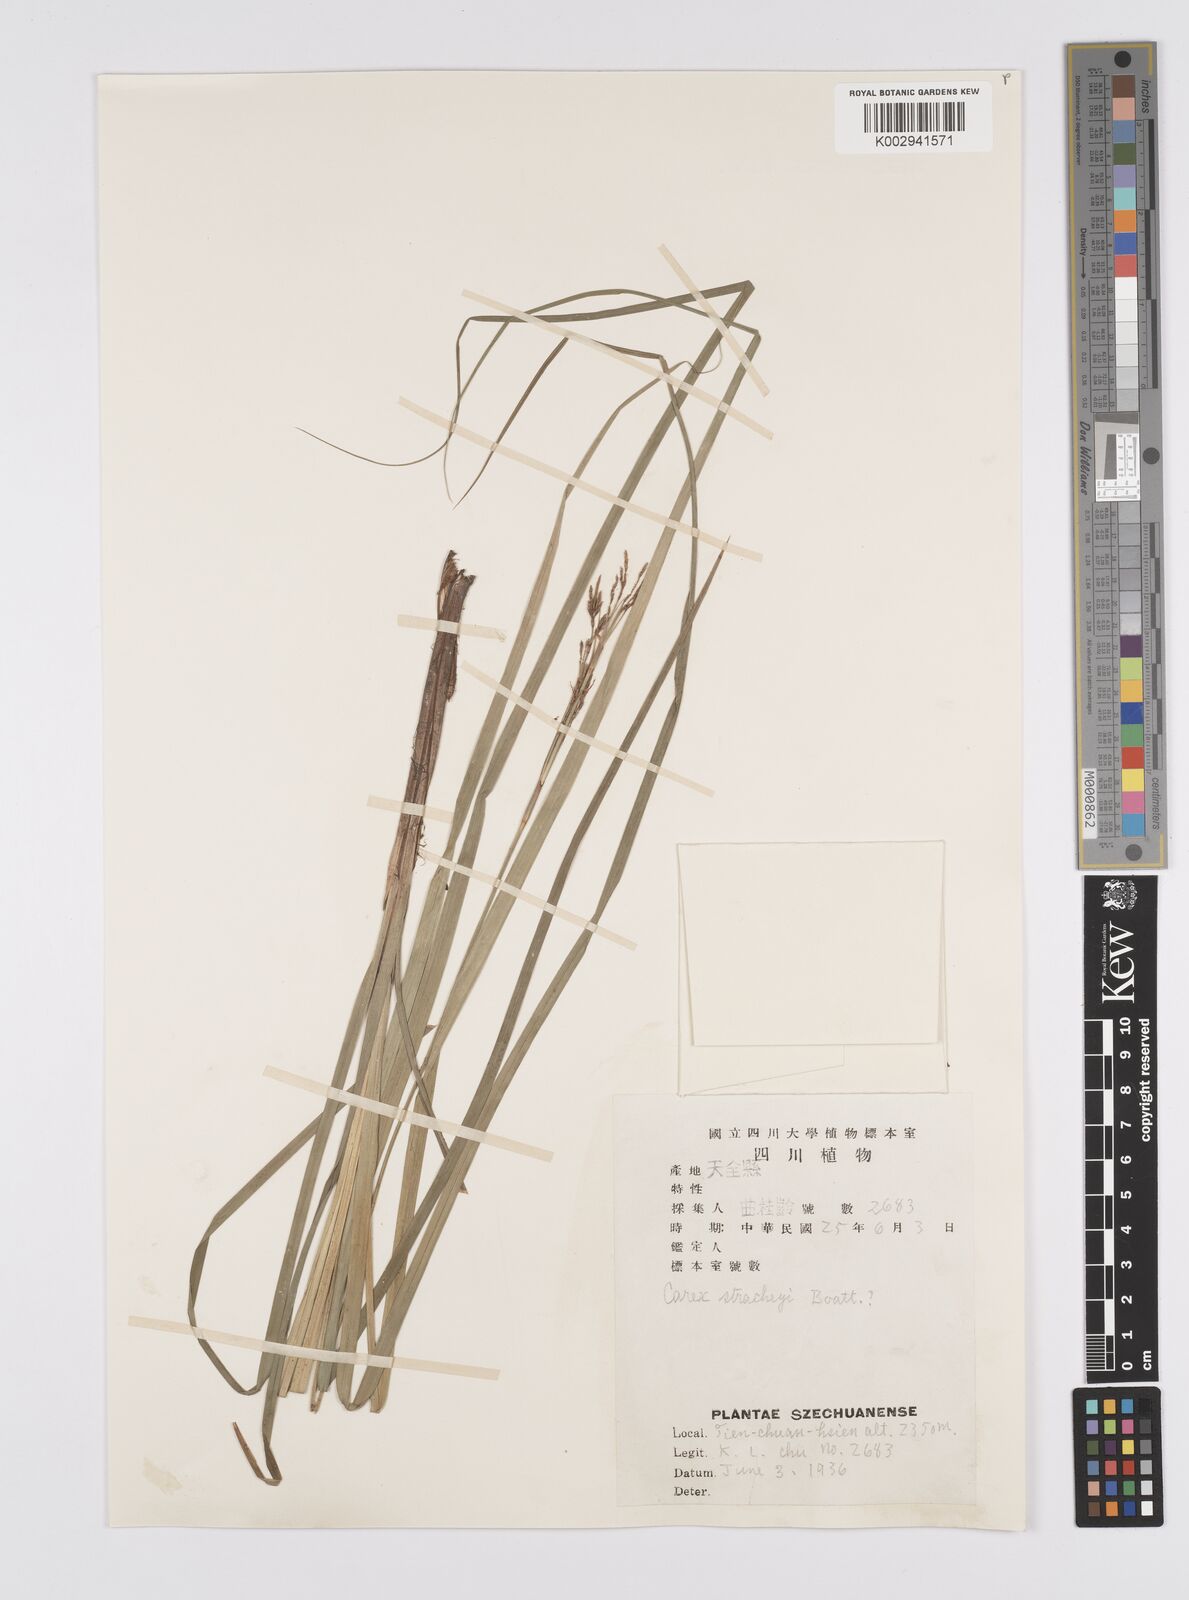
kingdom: Plantae
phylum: Tracheophyta
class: Liliopsida
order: Poales
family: Cyperaceae
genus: Carex
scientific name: Carex stracheyi
